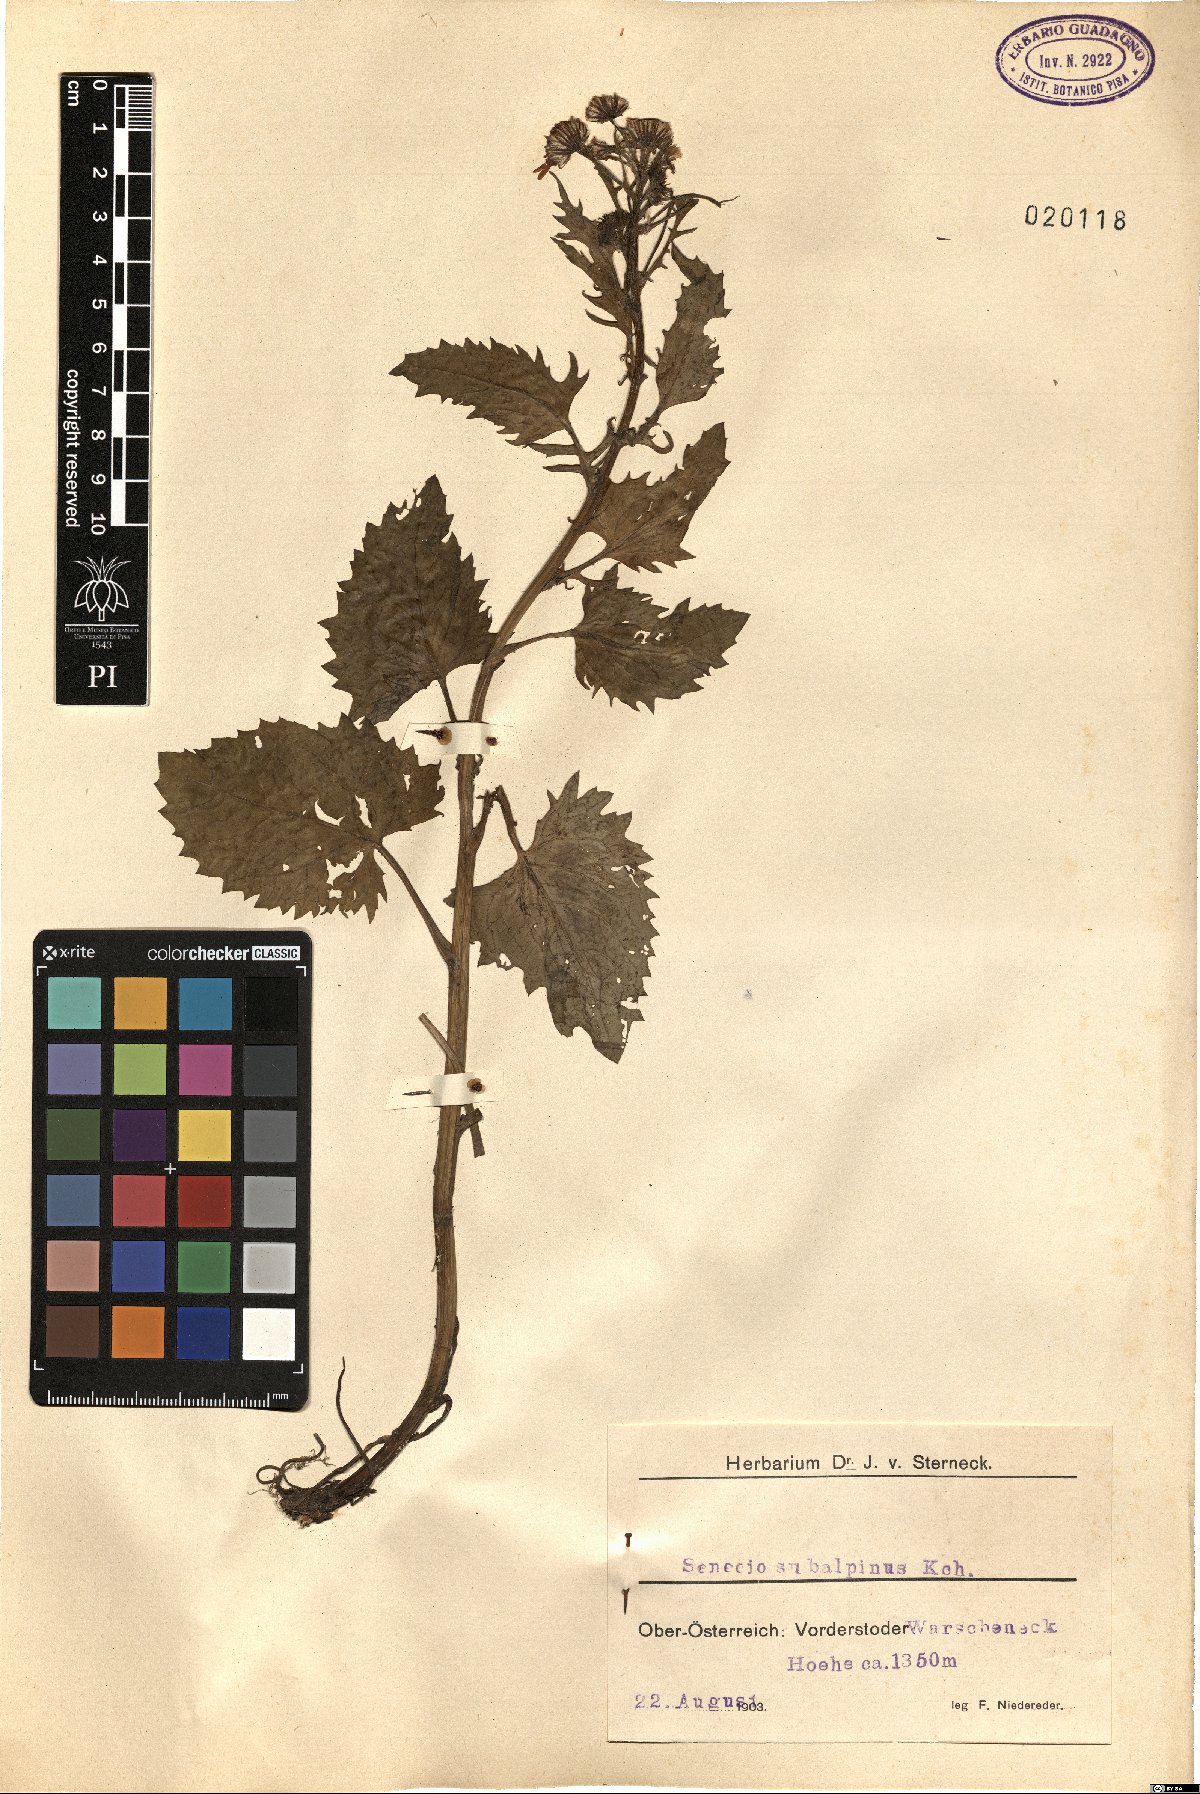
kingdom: Plantae
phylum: Tracheophyta
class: Magnoliopsida
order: Asterales
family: Asteraceae
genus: Jacobaea
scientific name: Jacobaea subalpina
